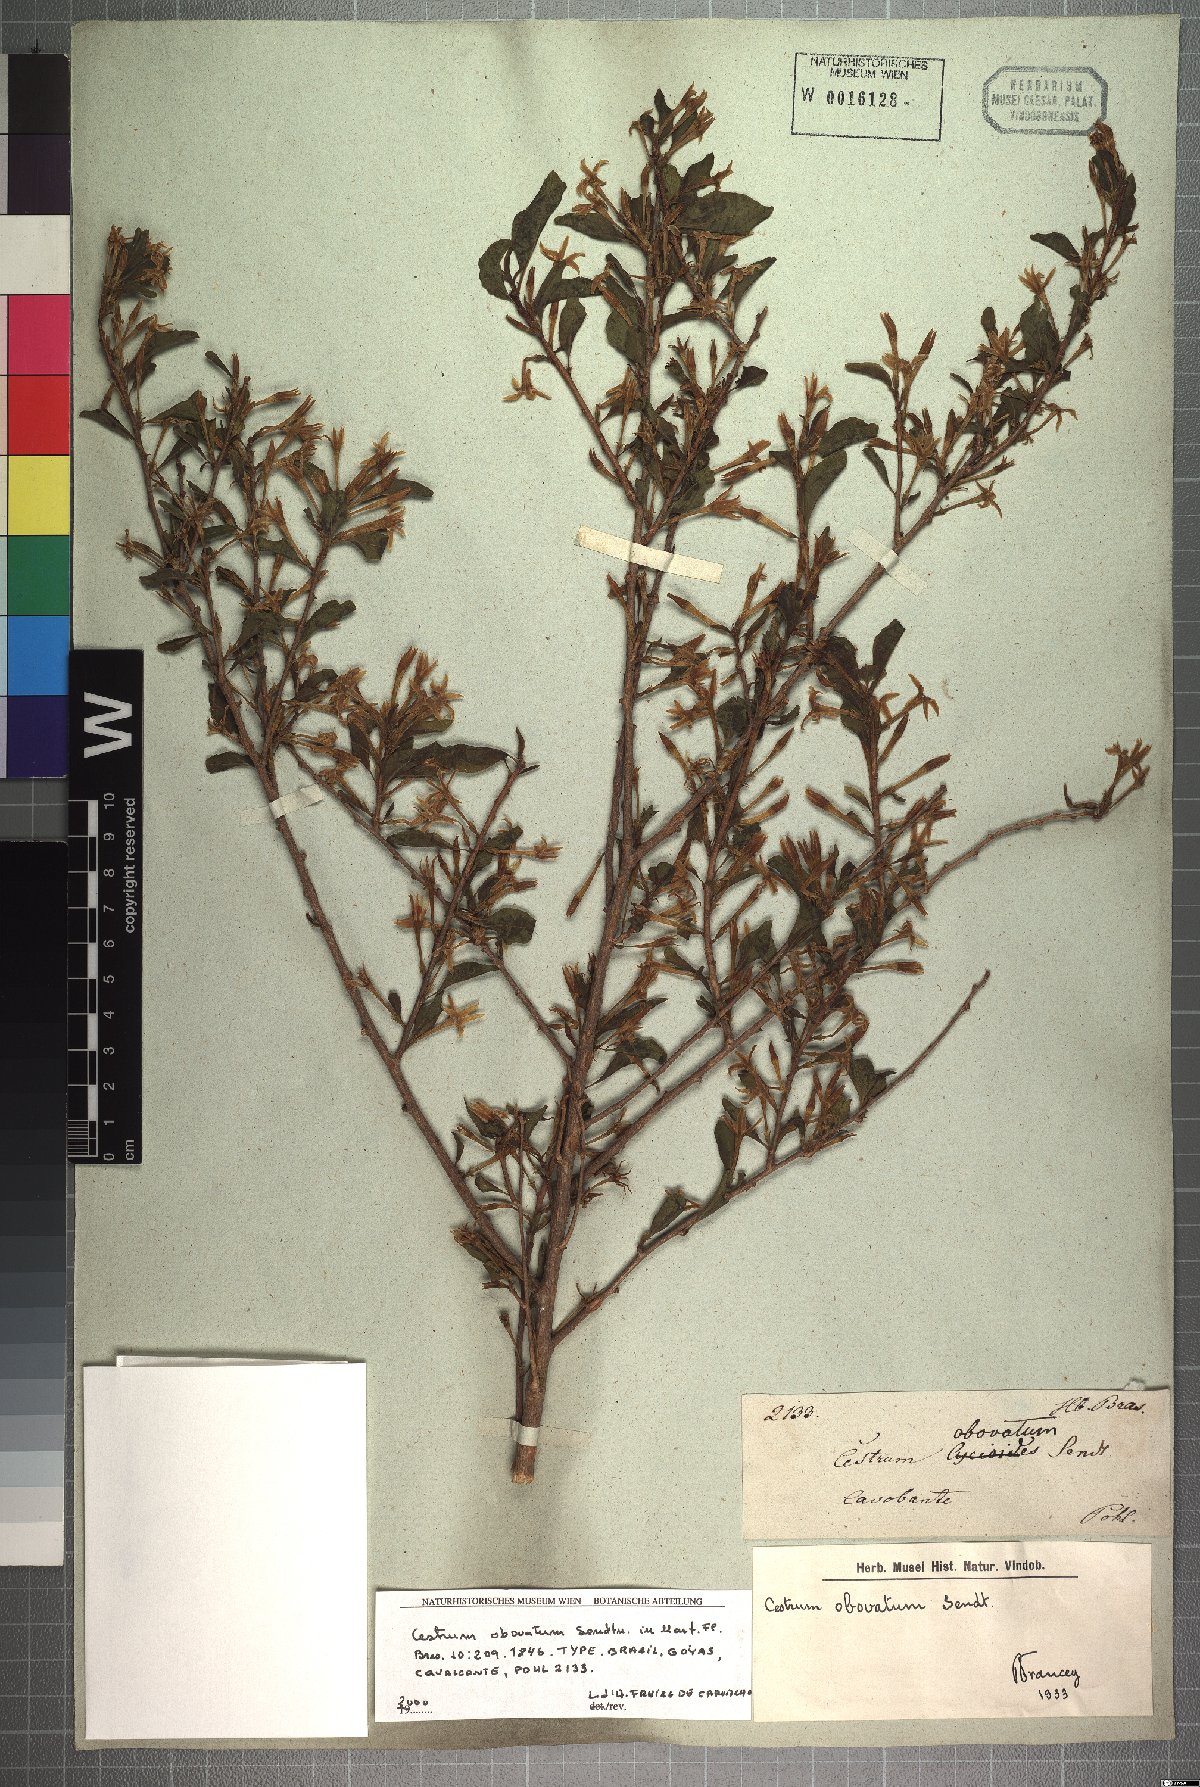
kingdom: Plantae
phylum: Tracheophyta
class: Magnoliopsida
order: Solanales
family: Solanaceae
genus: Cestrum
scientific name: Cestrum obovatum
